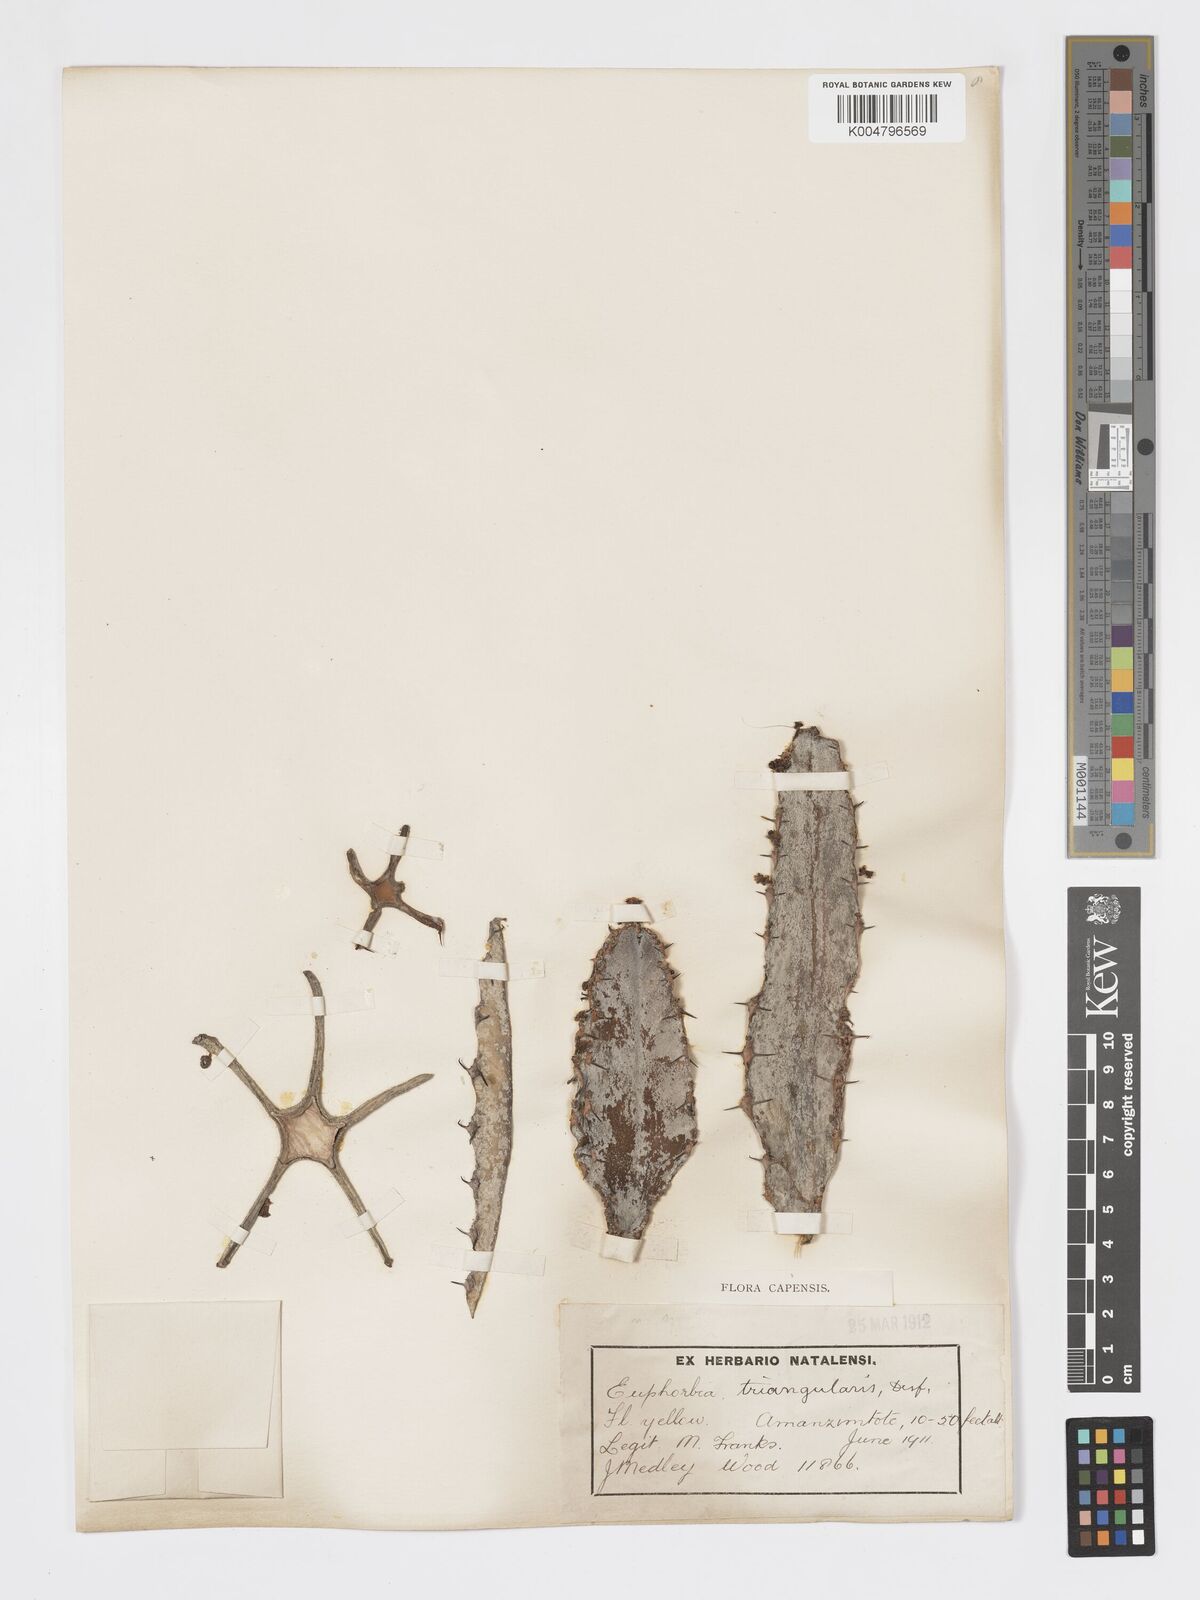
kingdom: Plantae
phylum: Tracheophyta
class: Magnoliopsida
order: Malpighiales
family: Euphorbiaceae
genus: Euphorbia
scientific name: Euphorbia triangularis
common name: Chandelier tree
